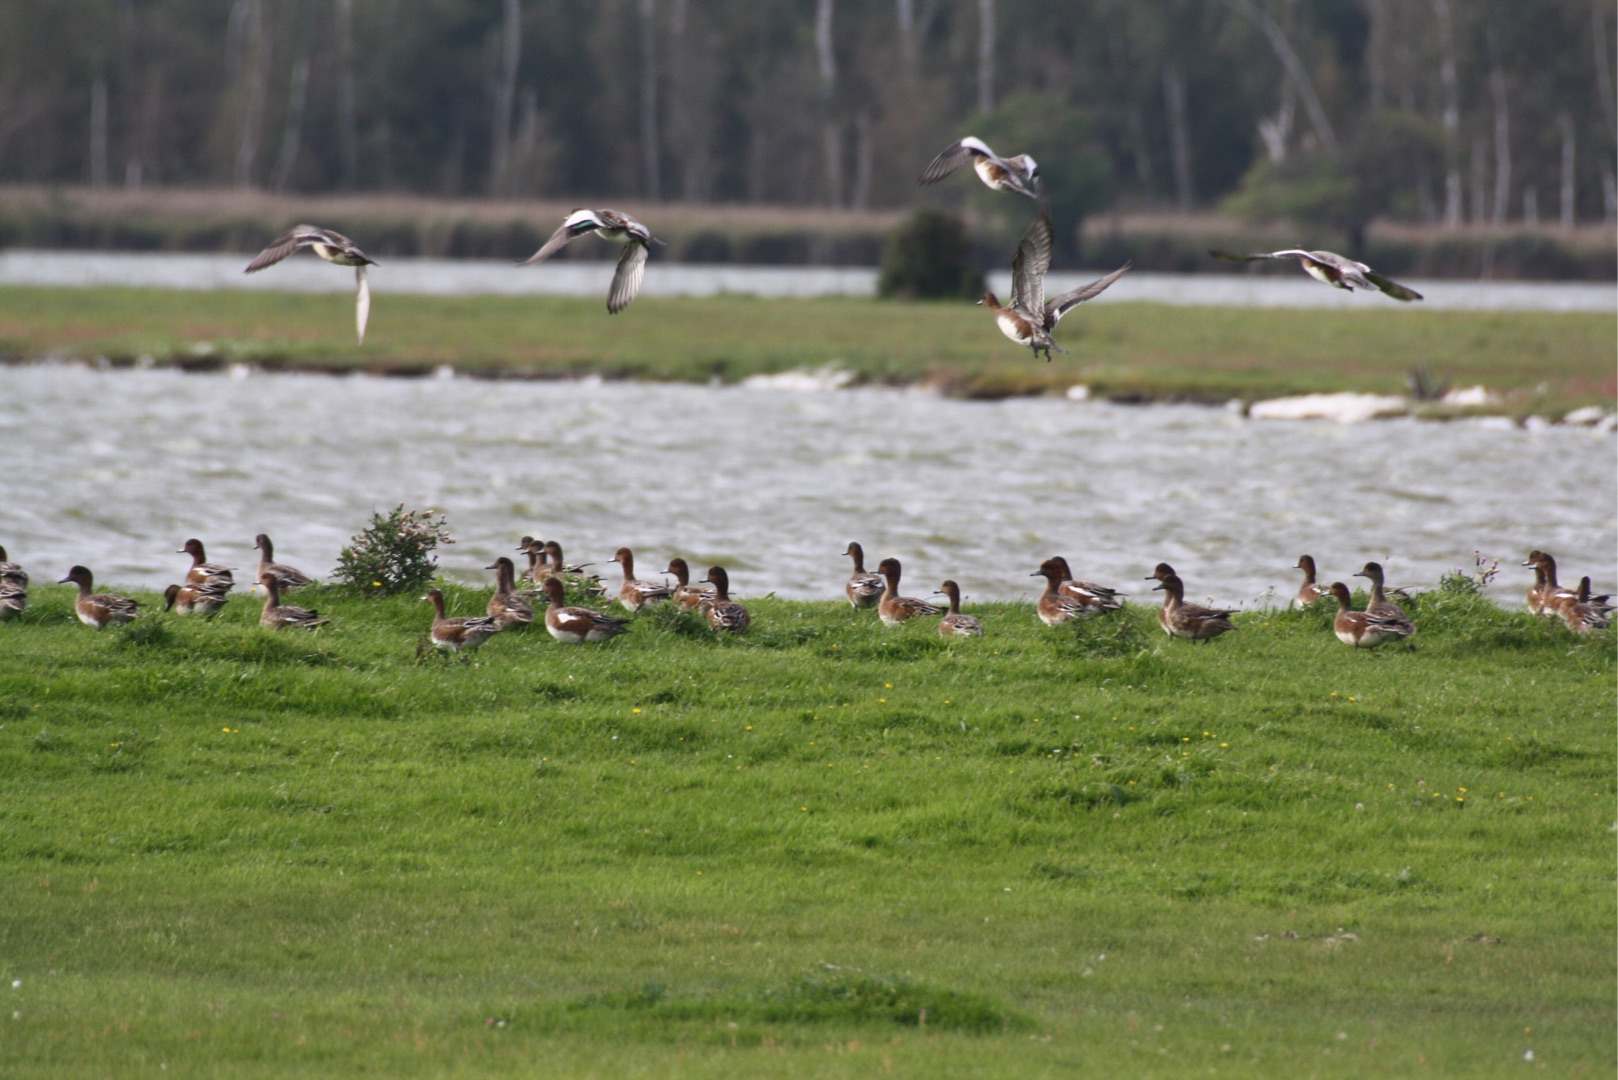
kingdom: Animalia
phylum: Chordata
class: Aves
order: Anseriformes
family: Anatidae
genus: Mareca
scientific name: Mareca penelope
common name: Pibeand
